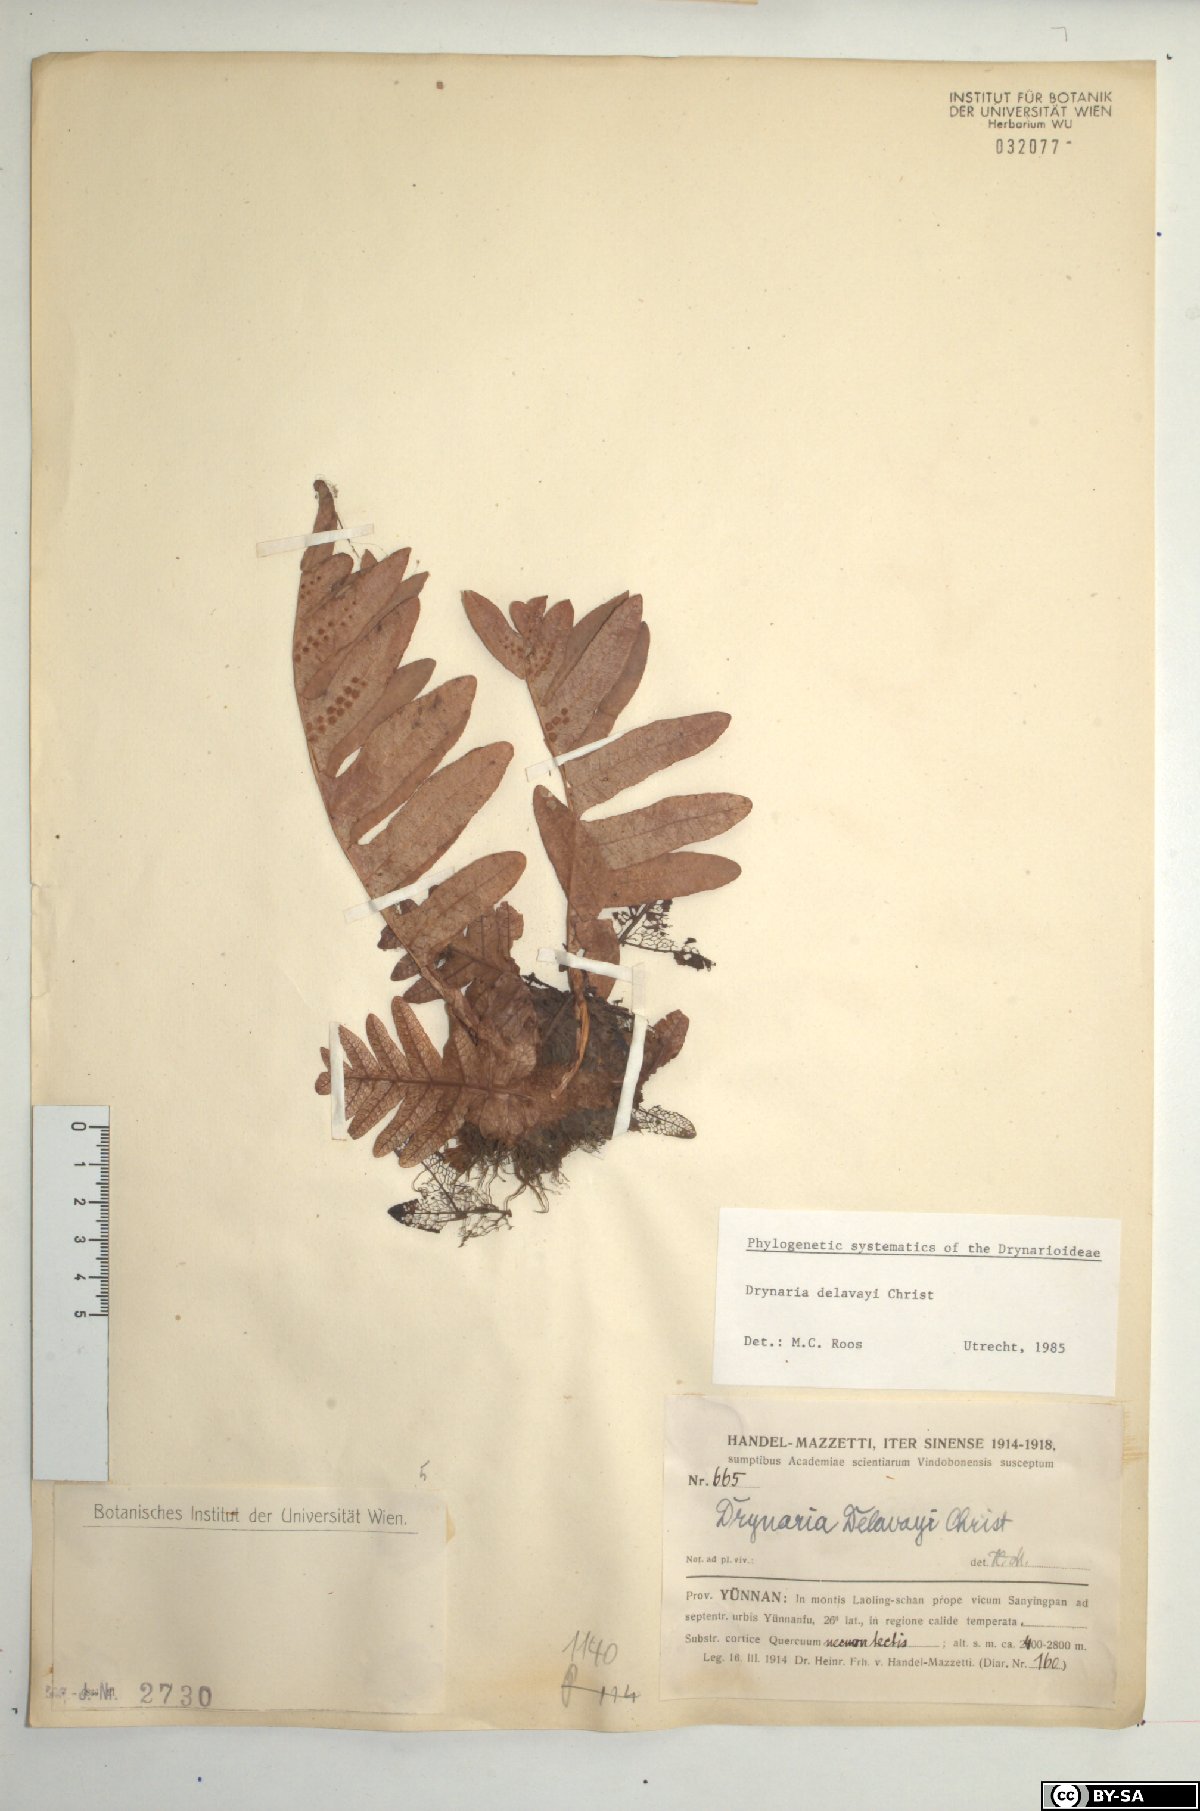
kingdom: Plantae
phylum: Tracheophyta
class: Polypodiopsida
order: Polypodiales
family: Polypodiaceae
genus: Drynaria
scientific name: Drynaria delavayi
